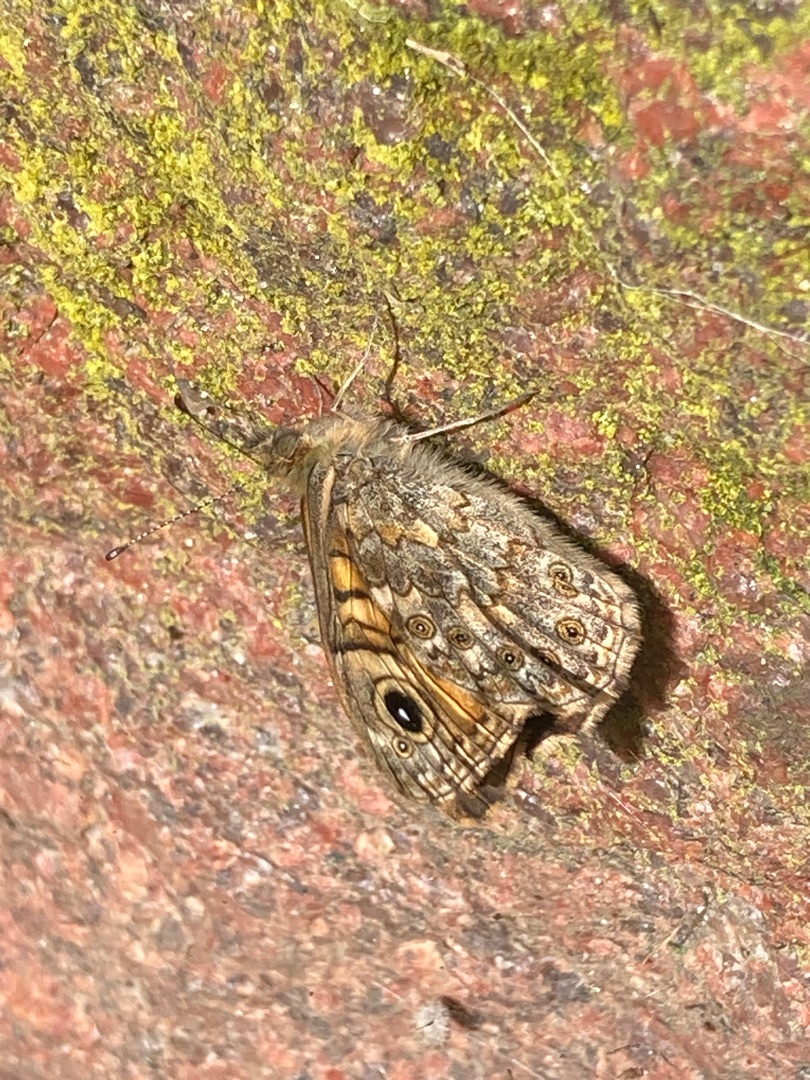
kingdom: Animalia
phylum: Arthropoda
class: Insecta
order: Lepidoptera
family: Nymphalidae
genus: Pararge
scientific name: Pararge Lasiommata megera
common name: Vejrandøje
